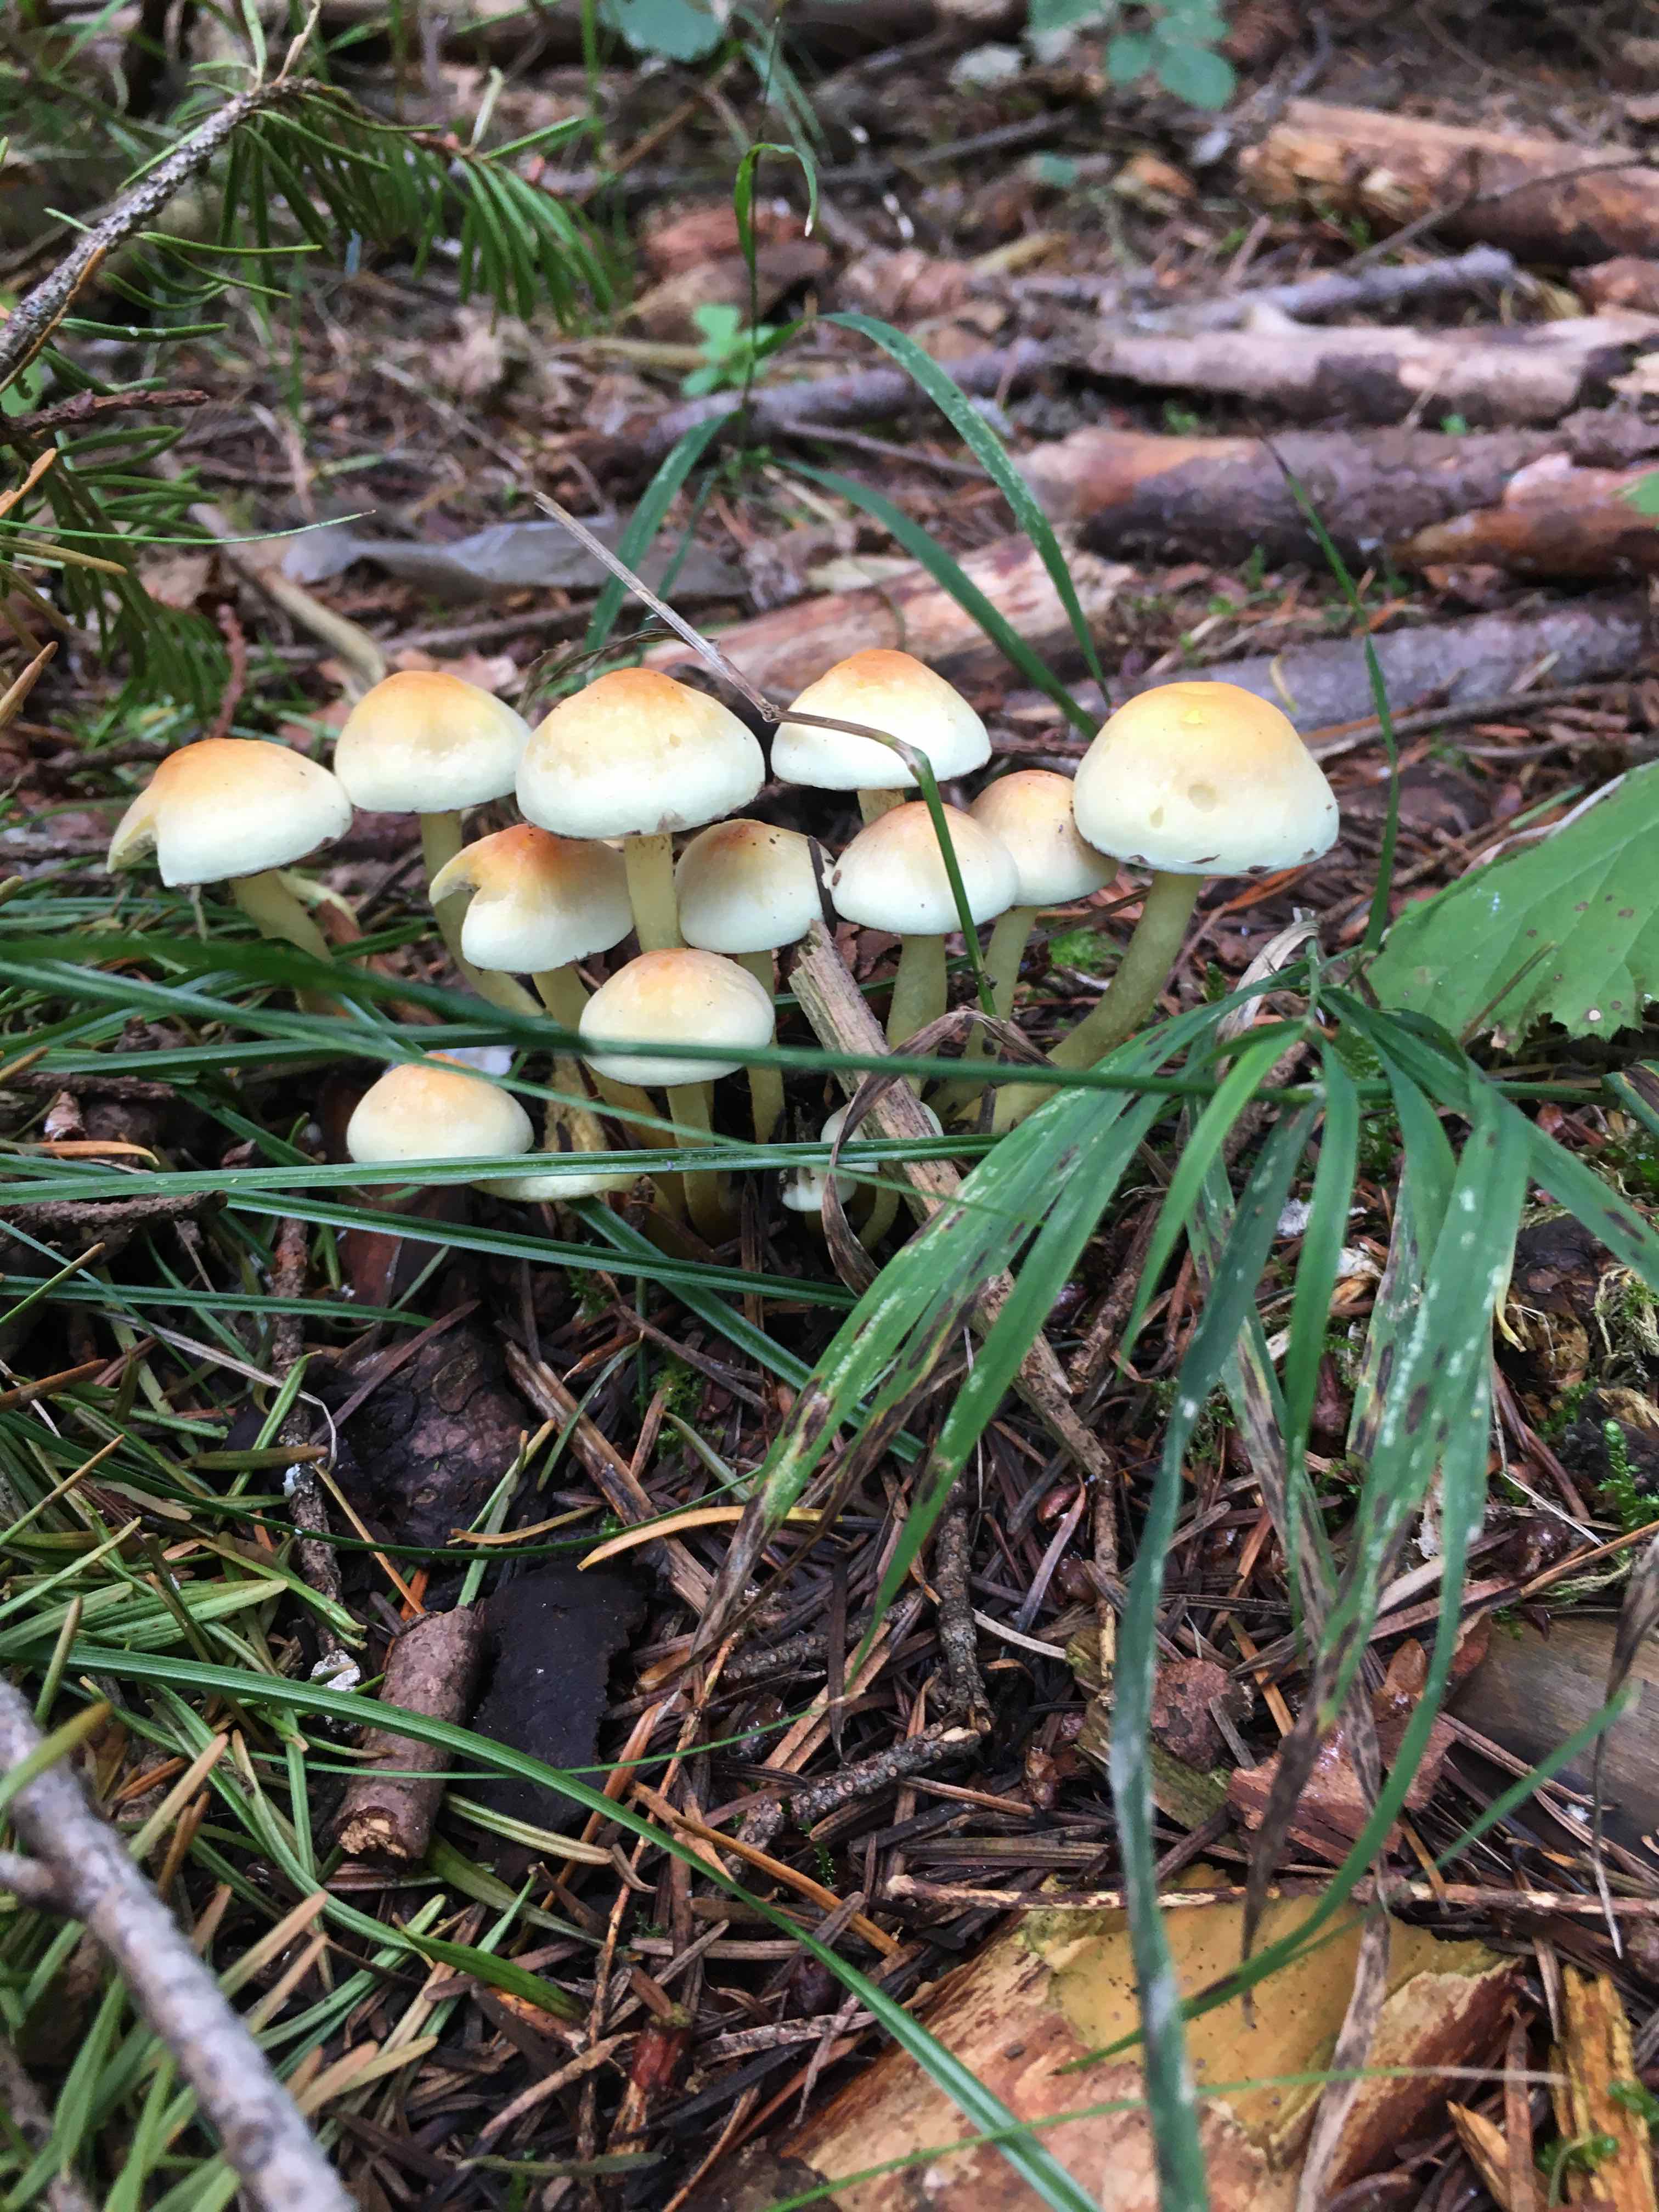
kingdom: Fungi
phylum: Basidiomycota
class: Agaricomycetes
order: Agaricales
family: Strophariaceae
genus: Hypholoma
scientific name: Hypholoma fasciculare
